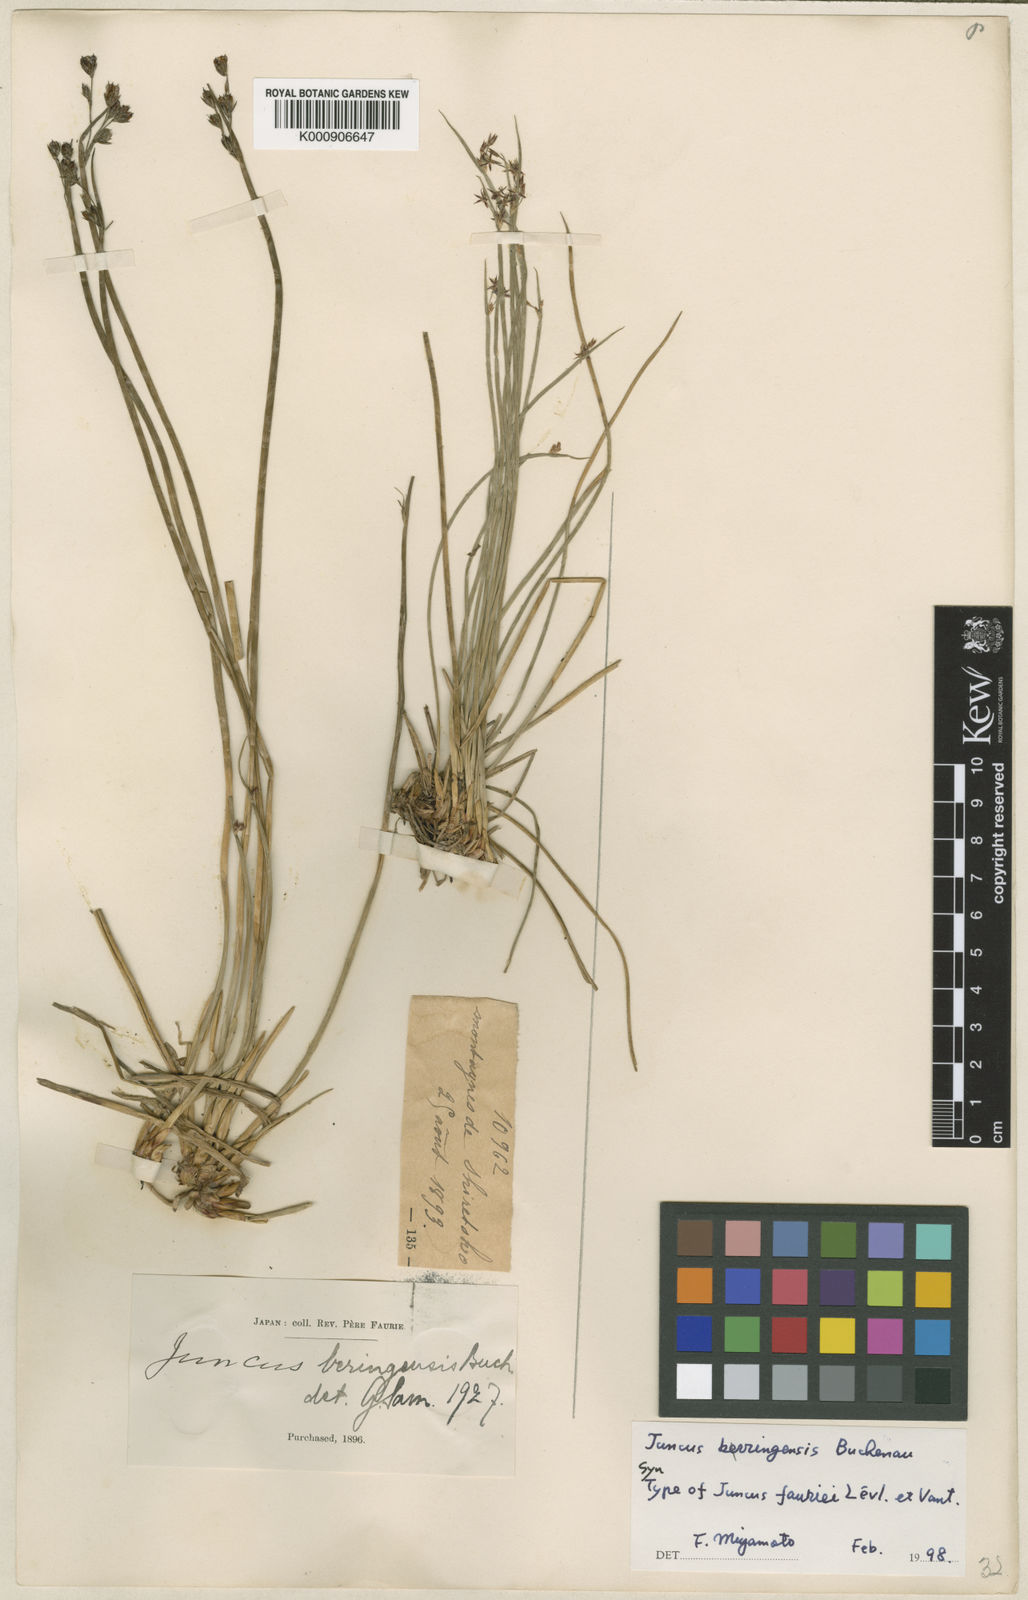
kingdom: Plantae
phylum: Tracheophyta
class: Liliopsida
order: Poales
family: Juncaceae
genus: Juncus
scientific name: Juncus beringensis
